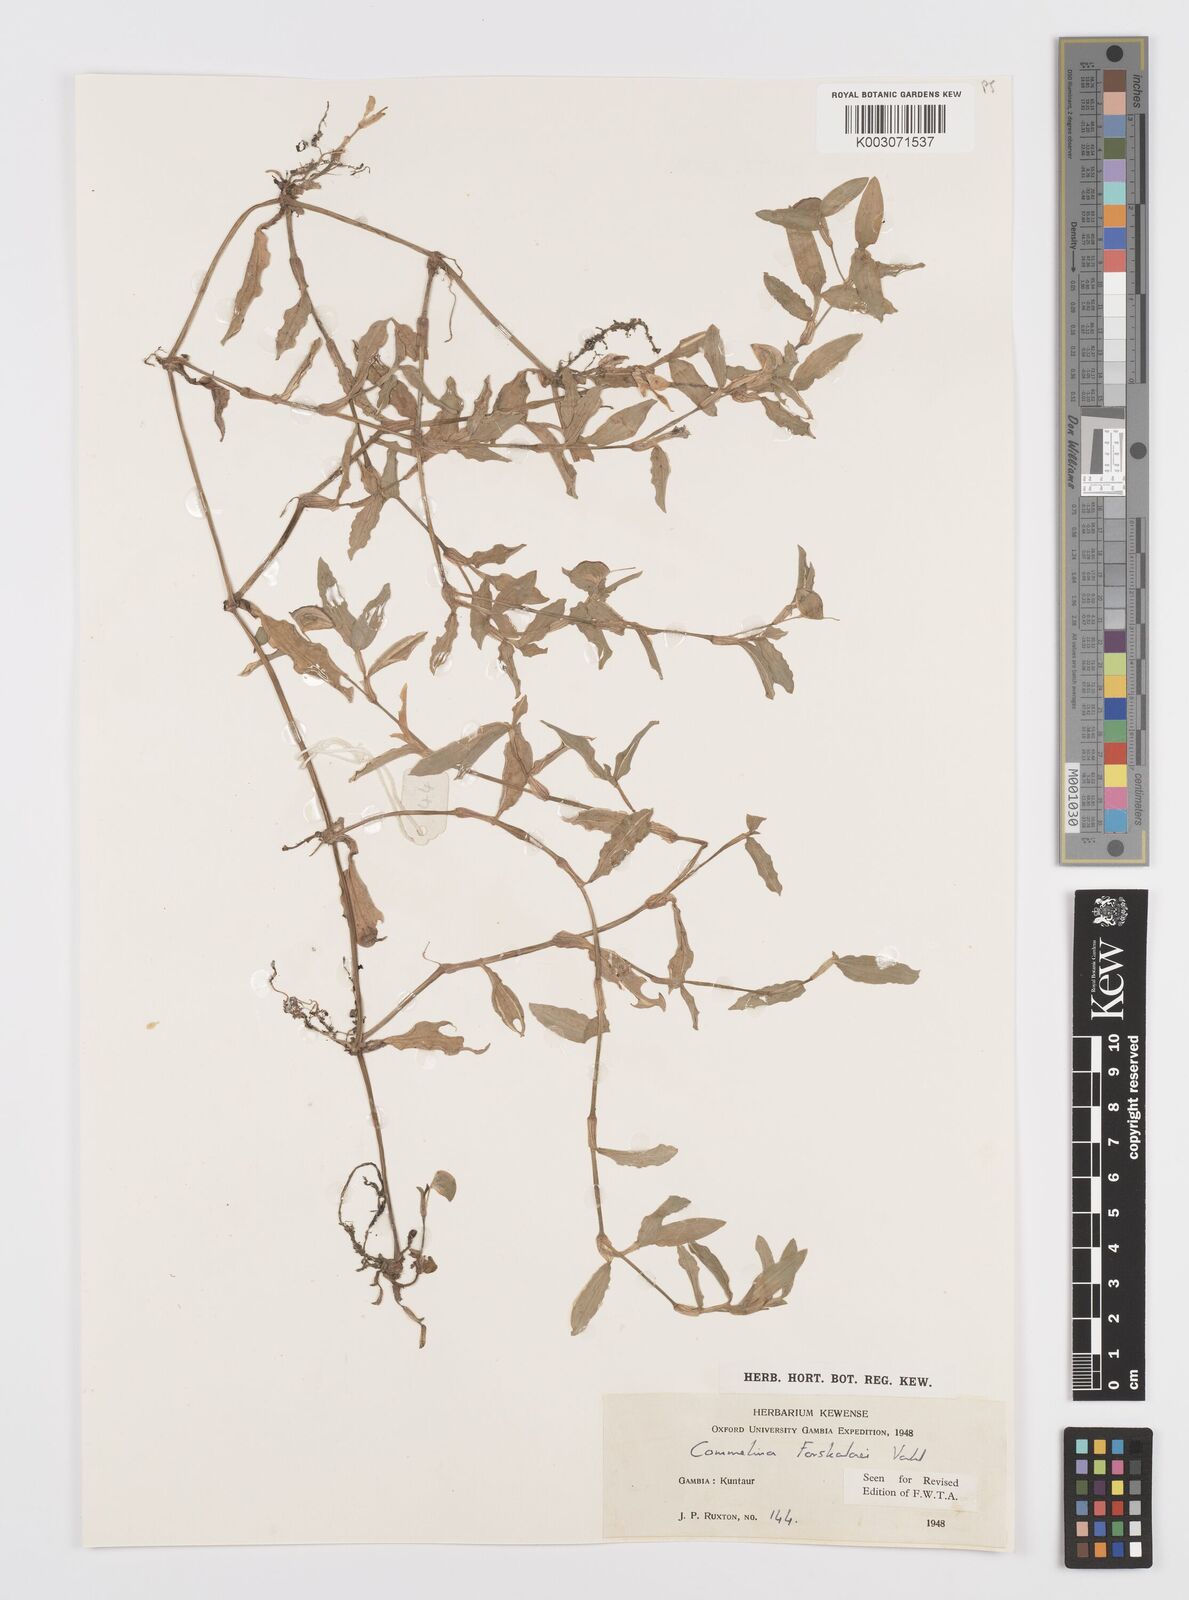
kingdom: Plantae
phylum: Tracheophyta
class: Liliopsida
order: Commelinales
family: Commelinaceae
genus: Commelina
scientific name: Commelina forskaolii
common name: Rat's ear
